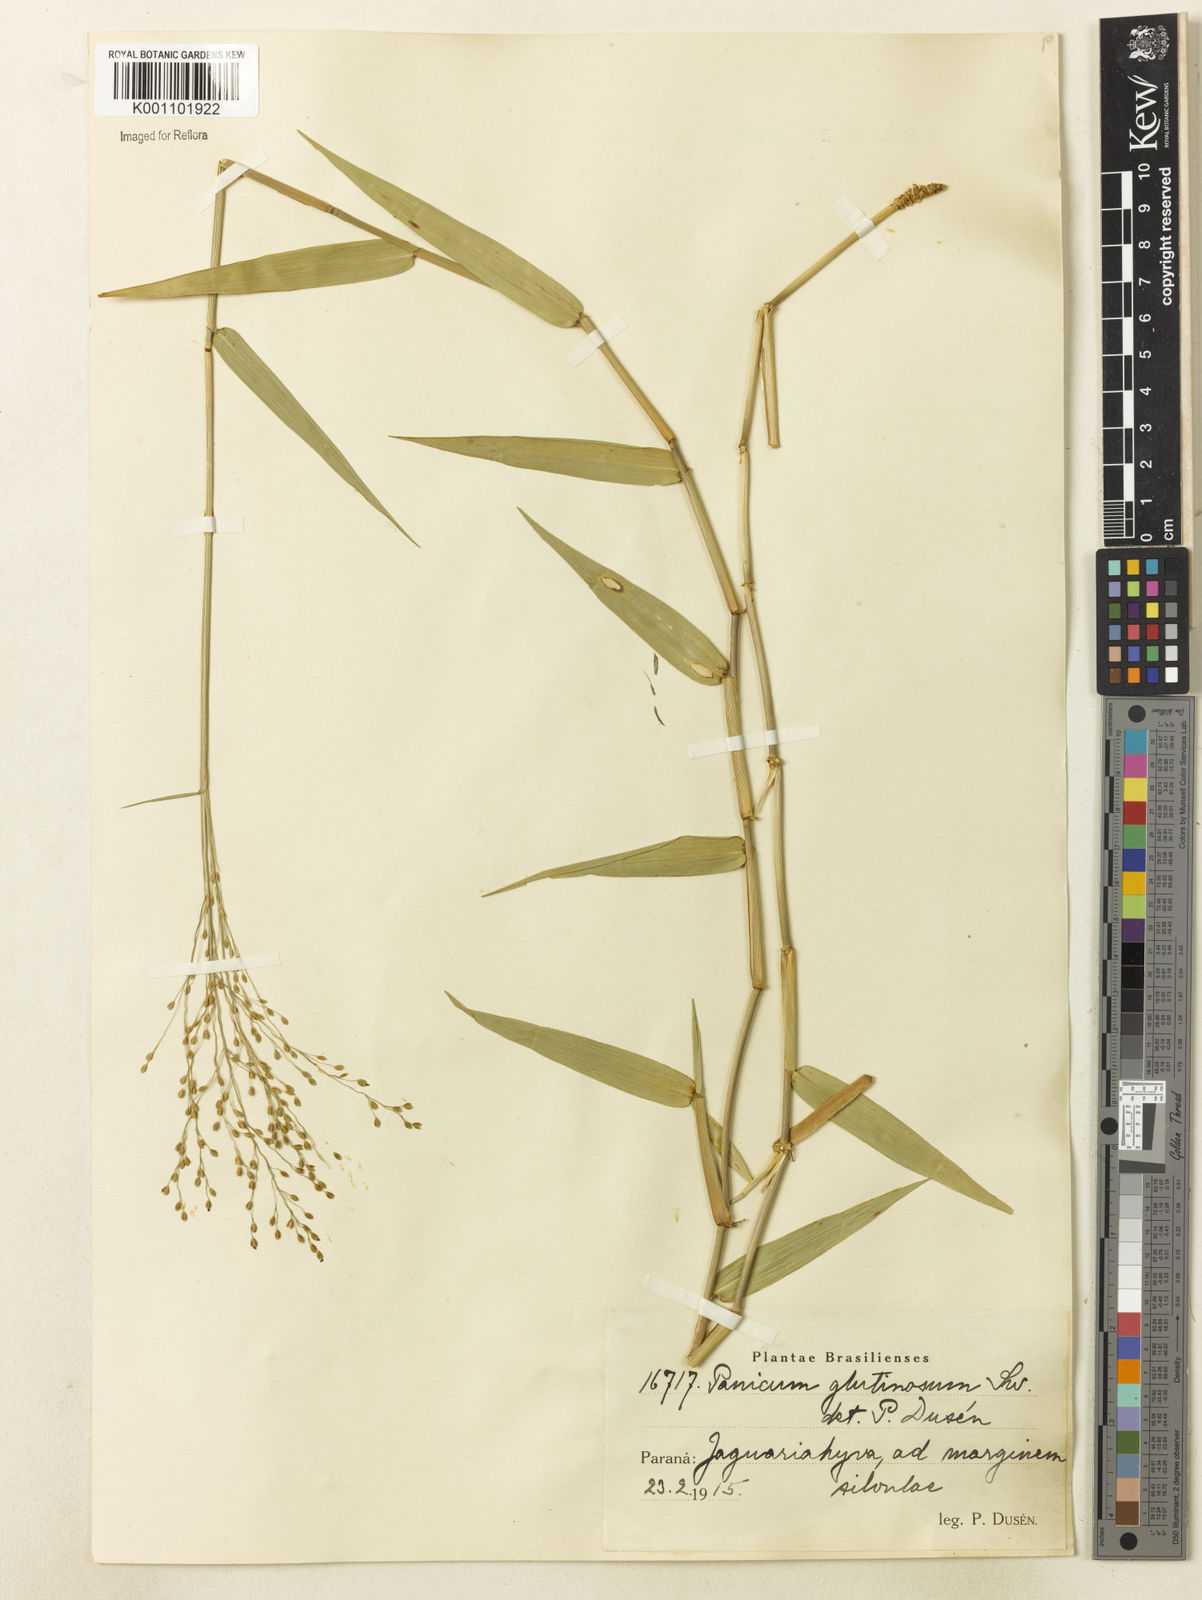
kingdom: Plantae
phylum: Tracheophyta
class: Liliopsida
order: Poales
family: Poaceae
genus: Homolepis
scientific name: Homolepis glutinosa
